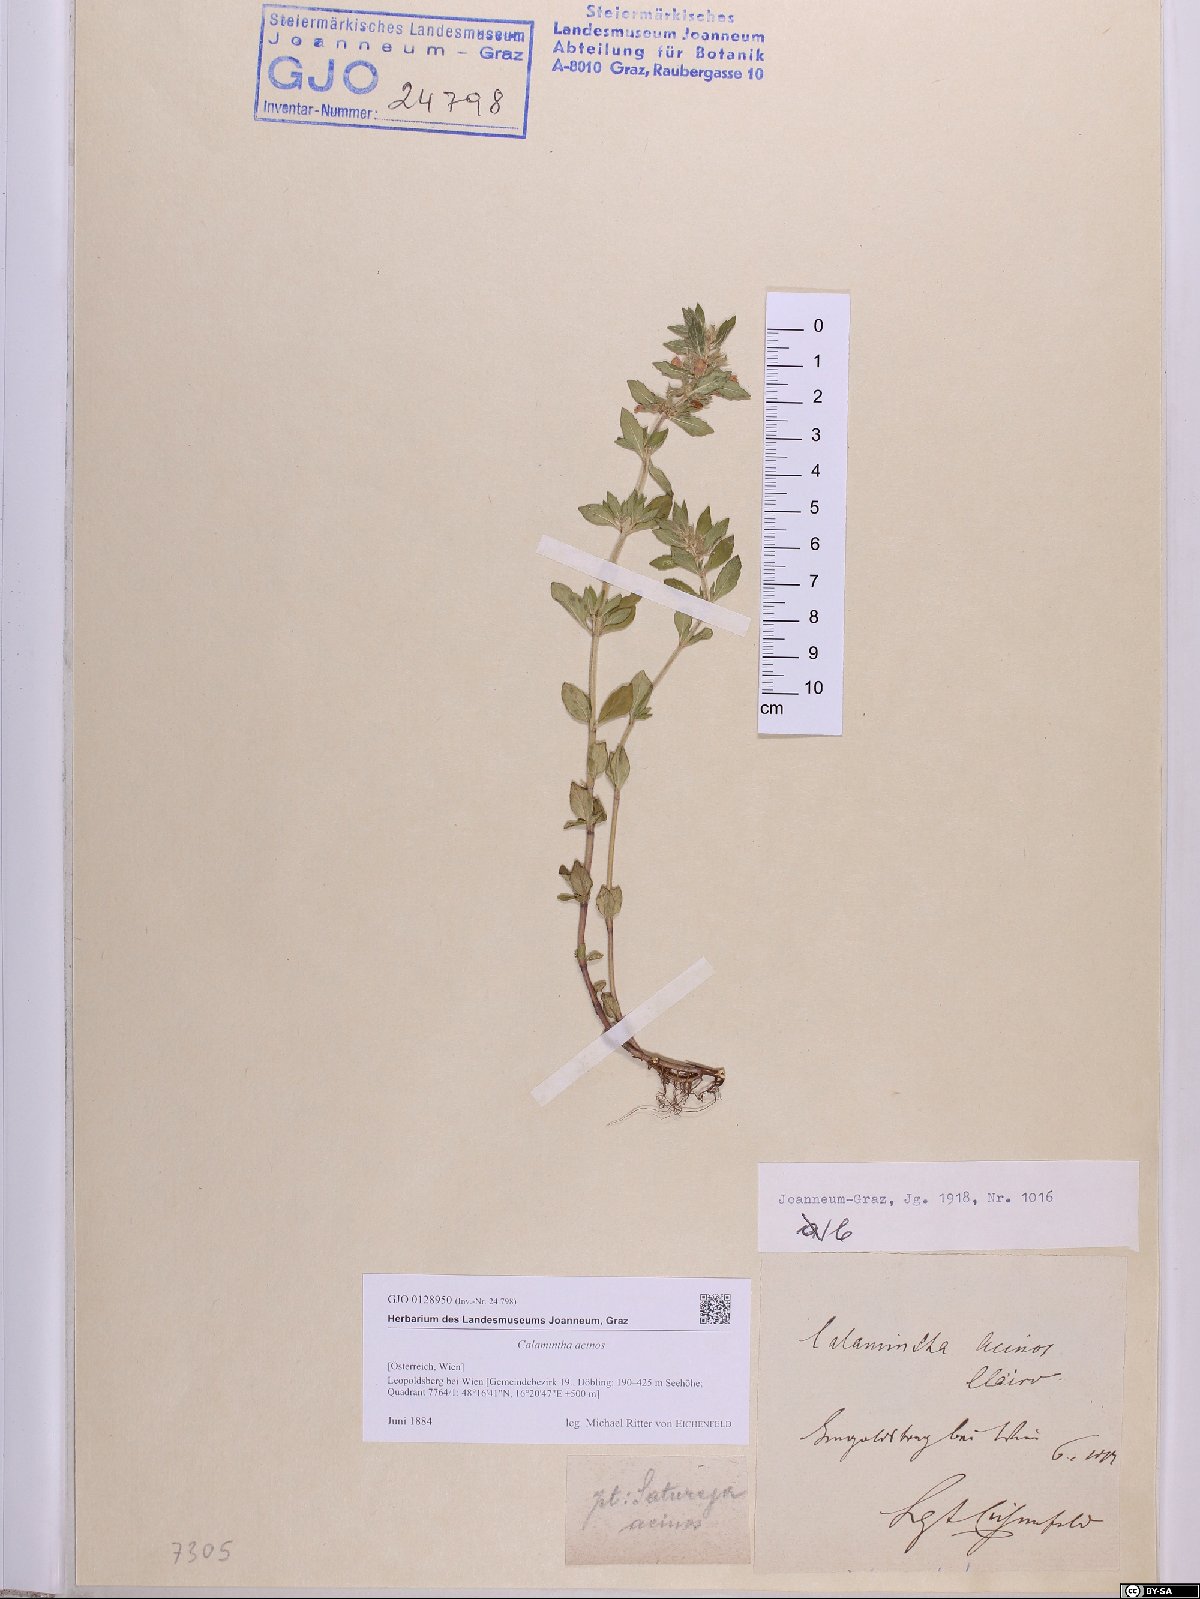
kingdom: Plantae
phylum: Tracheophyta
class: Magnoliopsida
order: Lamiales
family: Lamiaceae
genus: Clinopodium
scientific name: Clinopodium acinos
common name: Basil thyme
